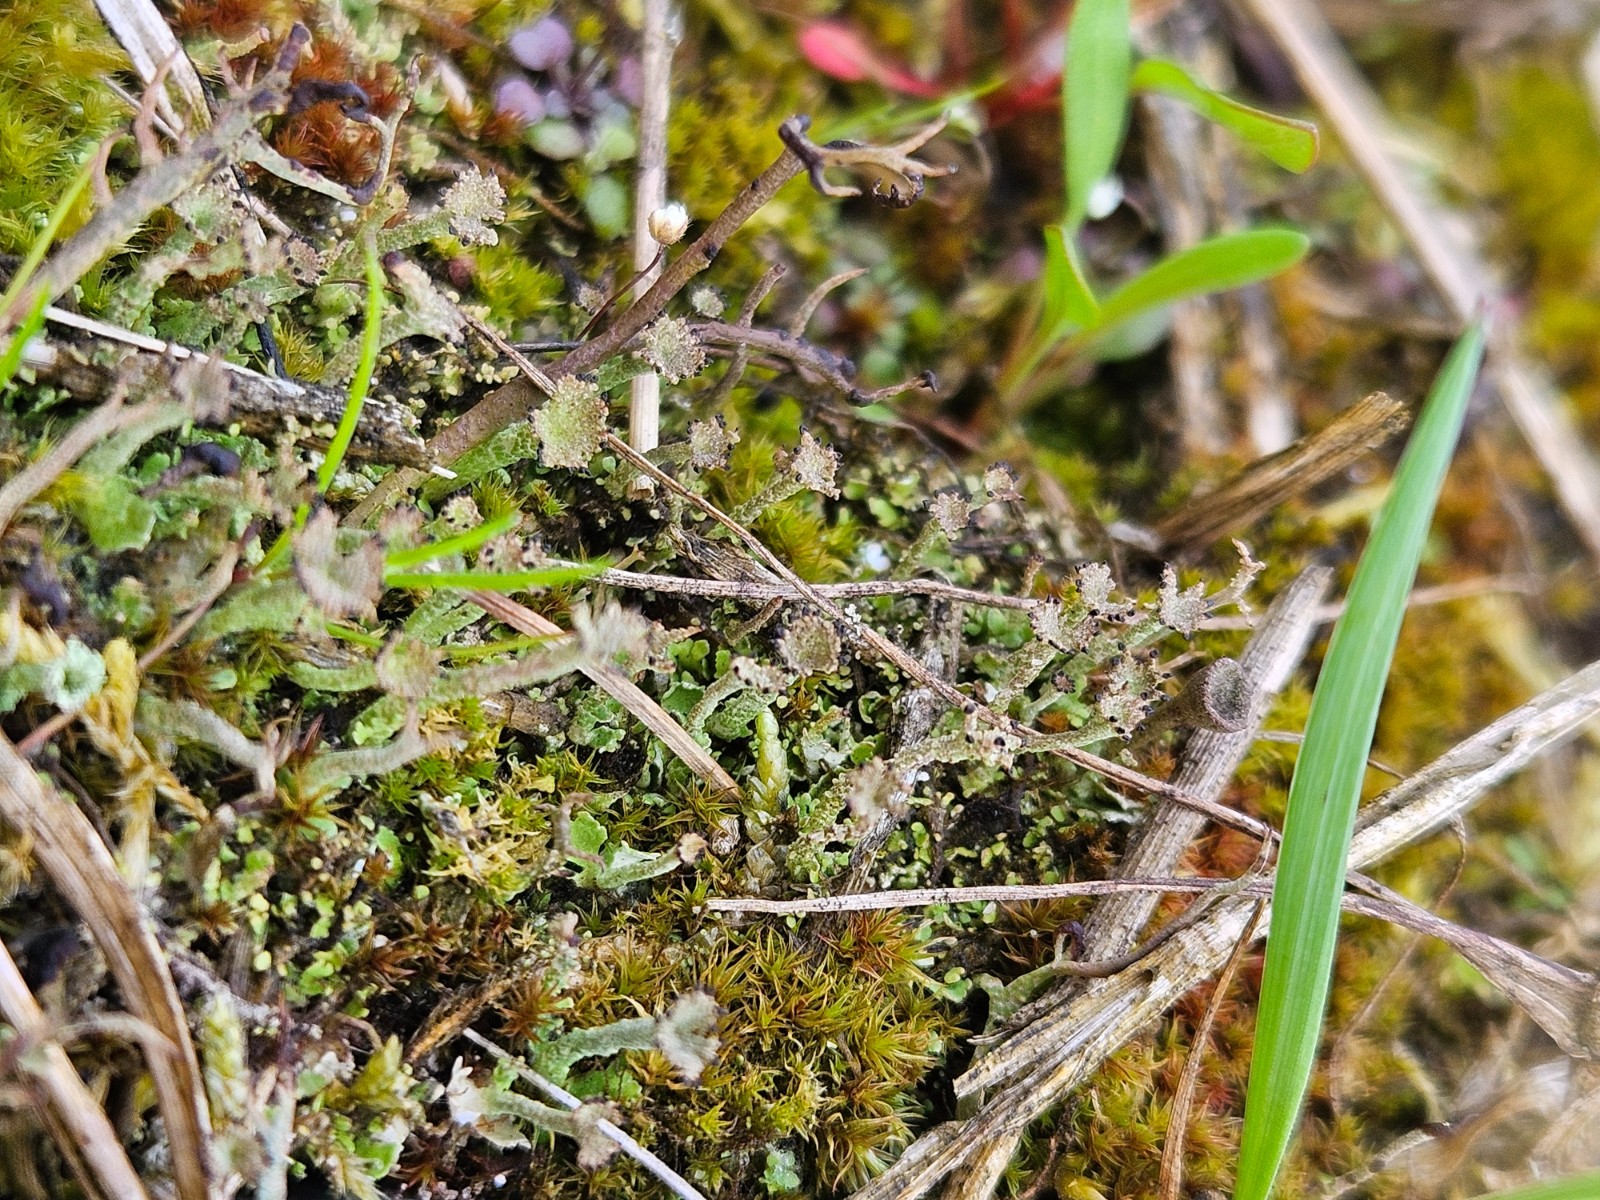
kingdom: Fungi
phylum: Ascomycota
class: Lecanoromycetes
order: Lecanorales
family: Cladoniaceae
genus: Cladonia
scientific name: Cladonia ramulosa
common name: kliddet bægerlav
